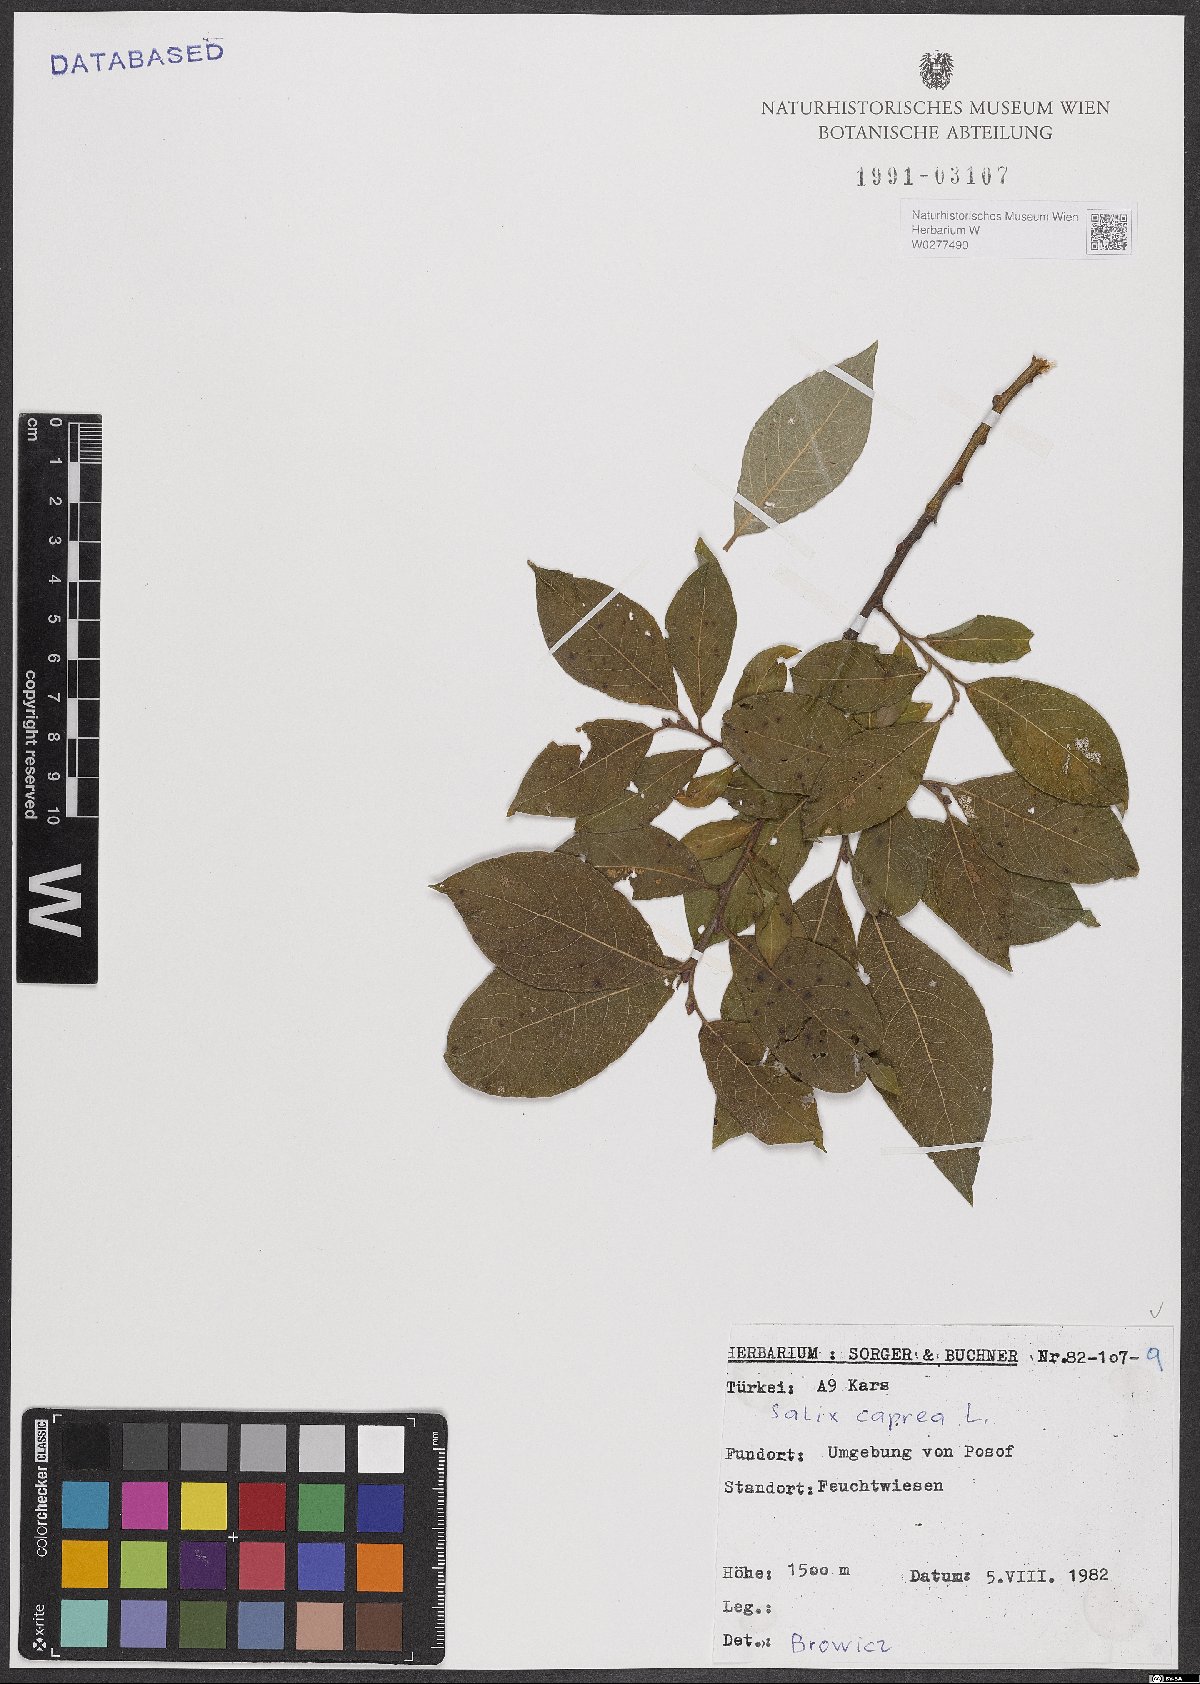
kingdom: Plantae
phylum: Tracheophyta
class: Magnoliopsida
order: Malpighiales
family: Salicaceae
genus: Salix
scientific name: Salix caprea
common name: Goat willow
